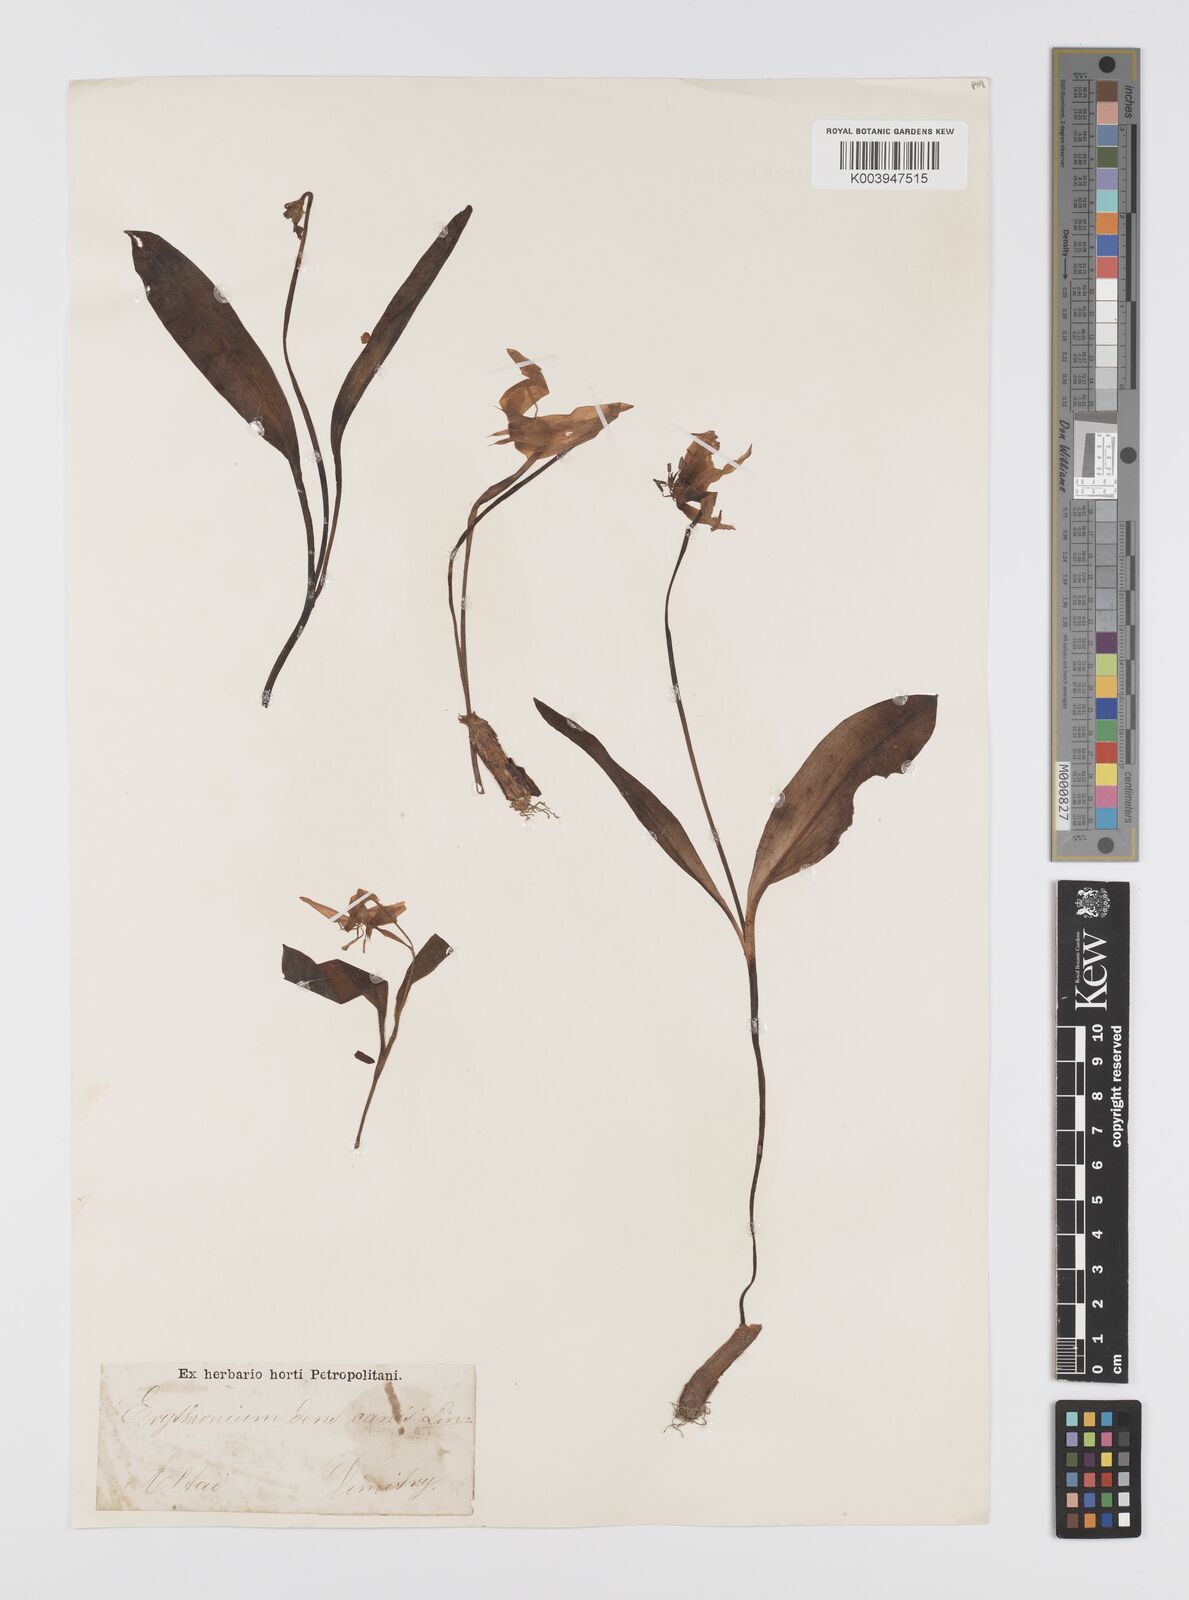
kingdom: Plantae
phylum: Tracheophyta
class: Liliopsida
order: Liliales
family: Liliaceae
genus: Erythronium
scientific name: Erythronium dens-canis
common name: Dog's-tooth-violet
